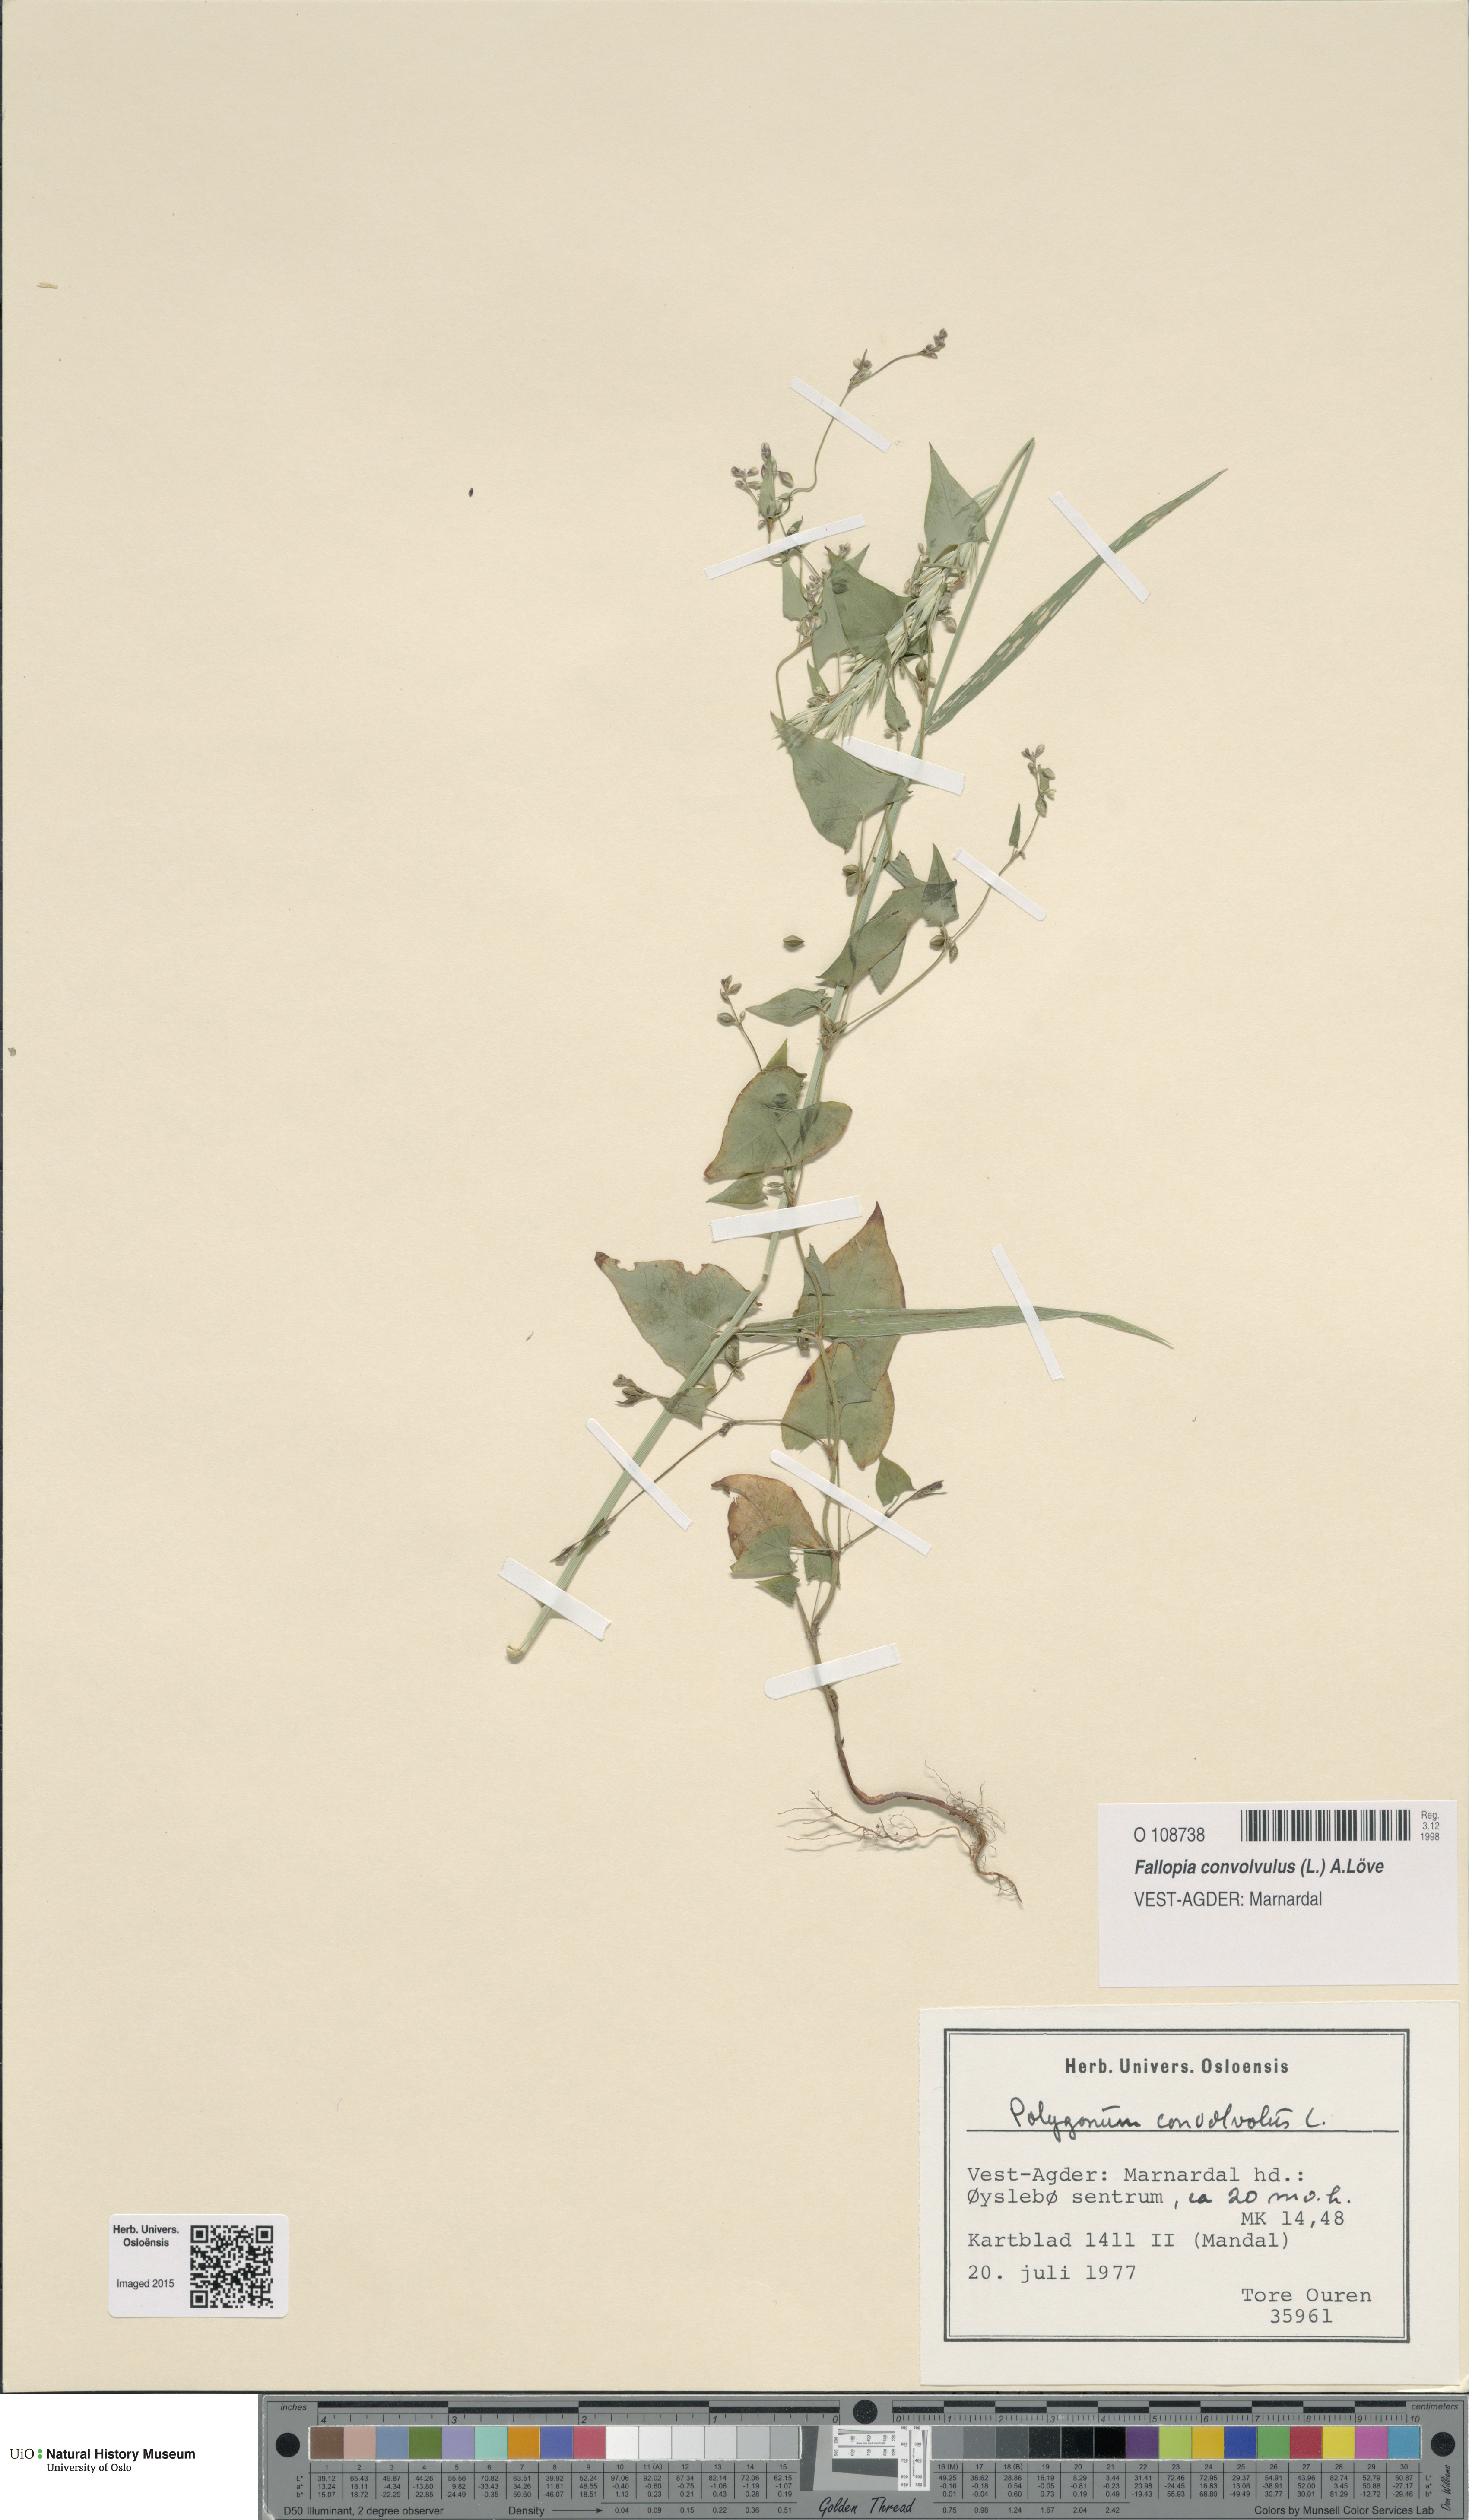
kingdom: Plantae
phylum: Tracheophyta
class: Magnoliopsida
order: Caryophyllales
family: Polygonaceae
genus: Fallopia
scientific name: Fallopia convolvulus
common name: Black bindweed
